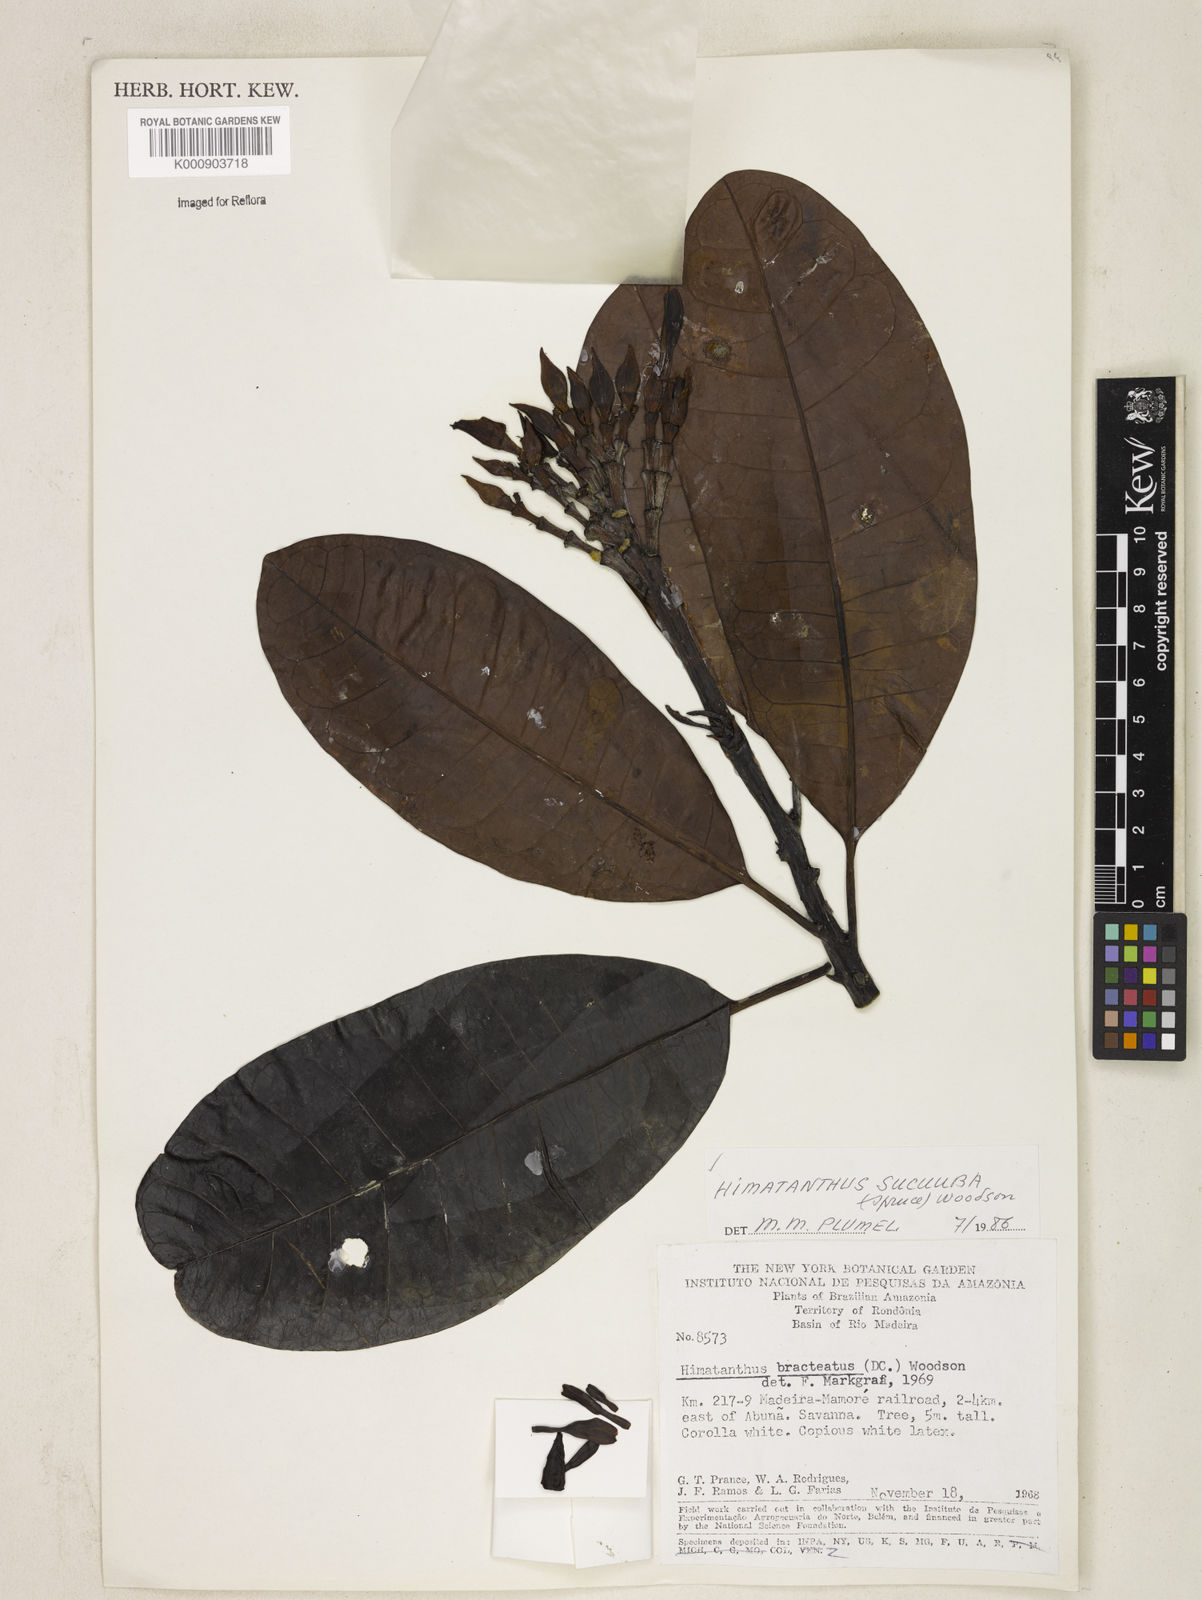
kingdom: Plantae
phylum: Tracheophyta
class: Magnoliopsida
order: Gentianales
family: Apocynaceae
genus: Himatanthus
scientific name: Himatanthus articulatus
